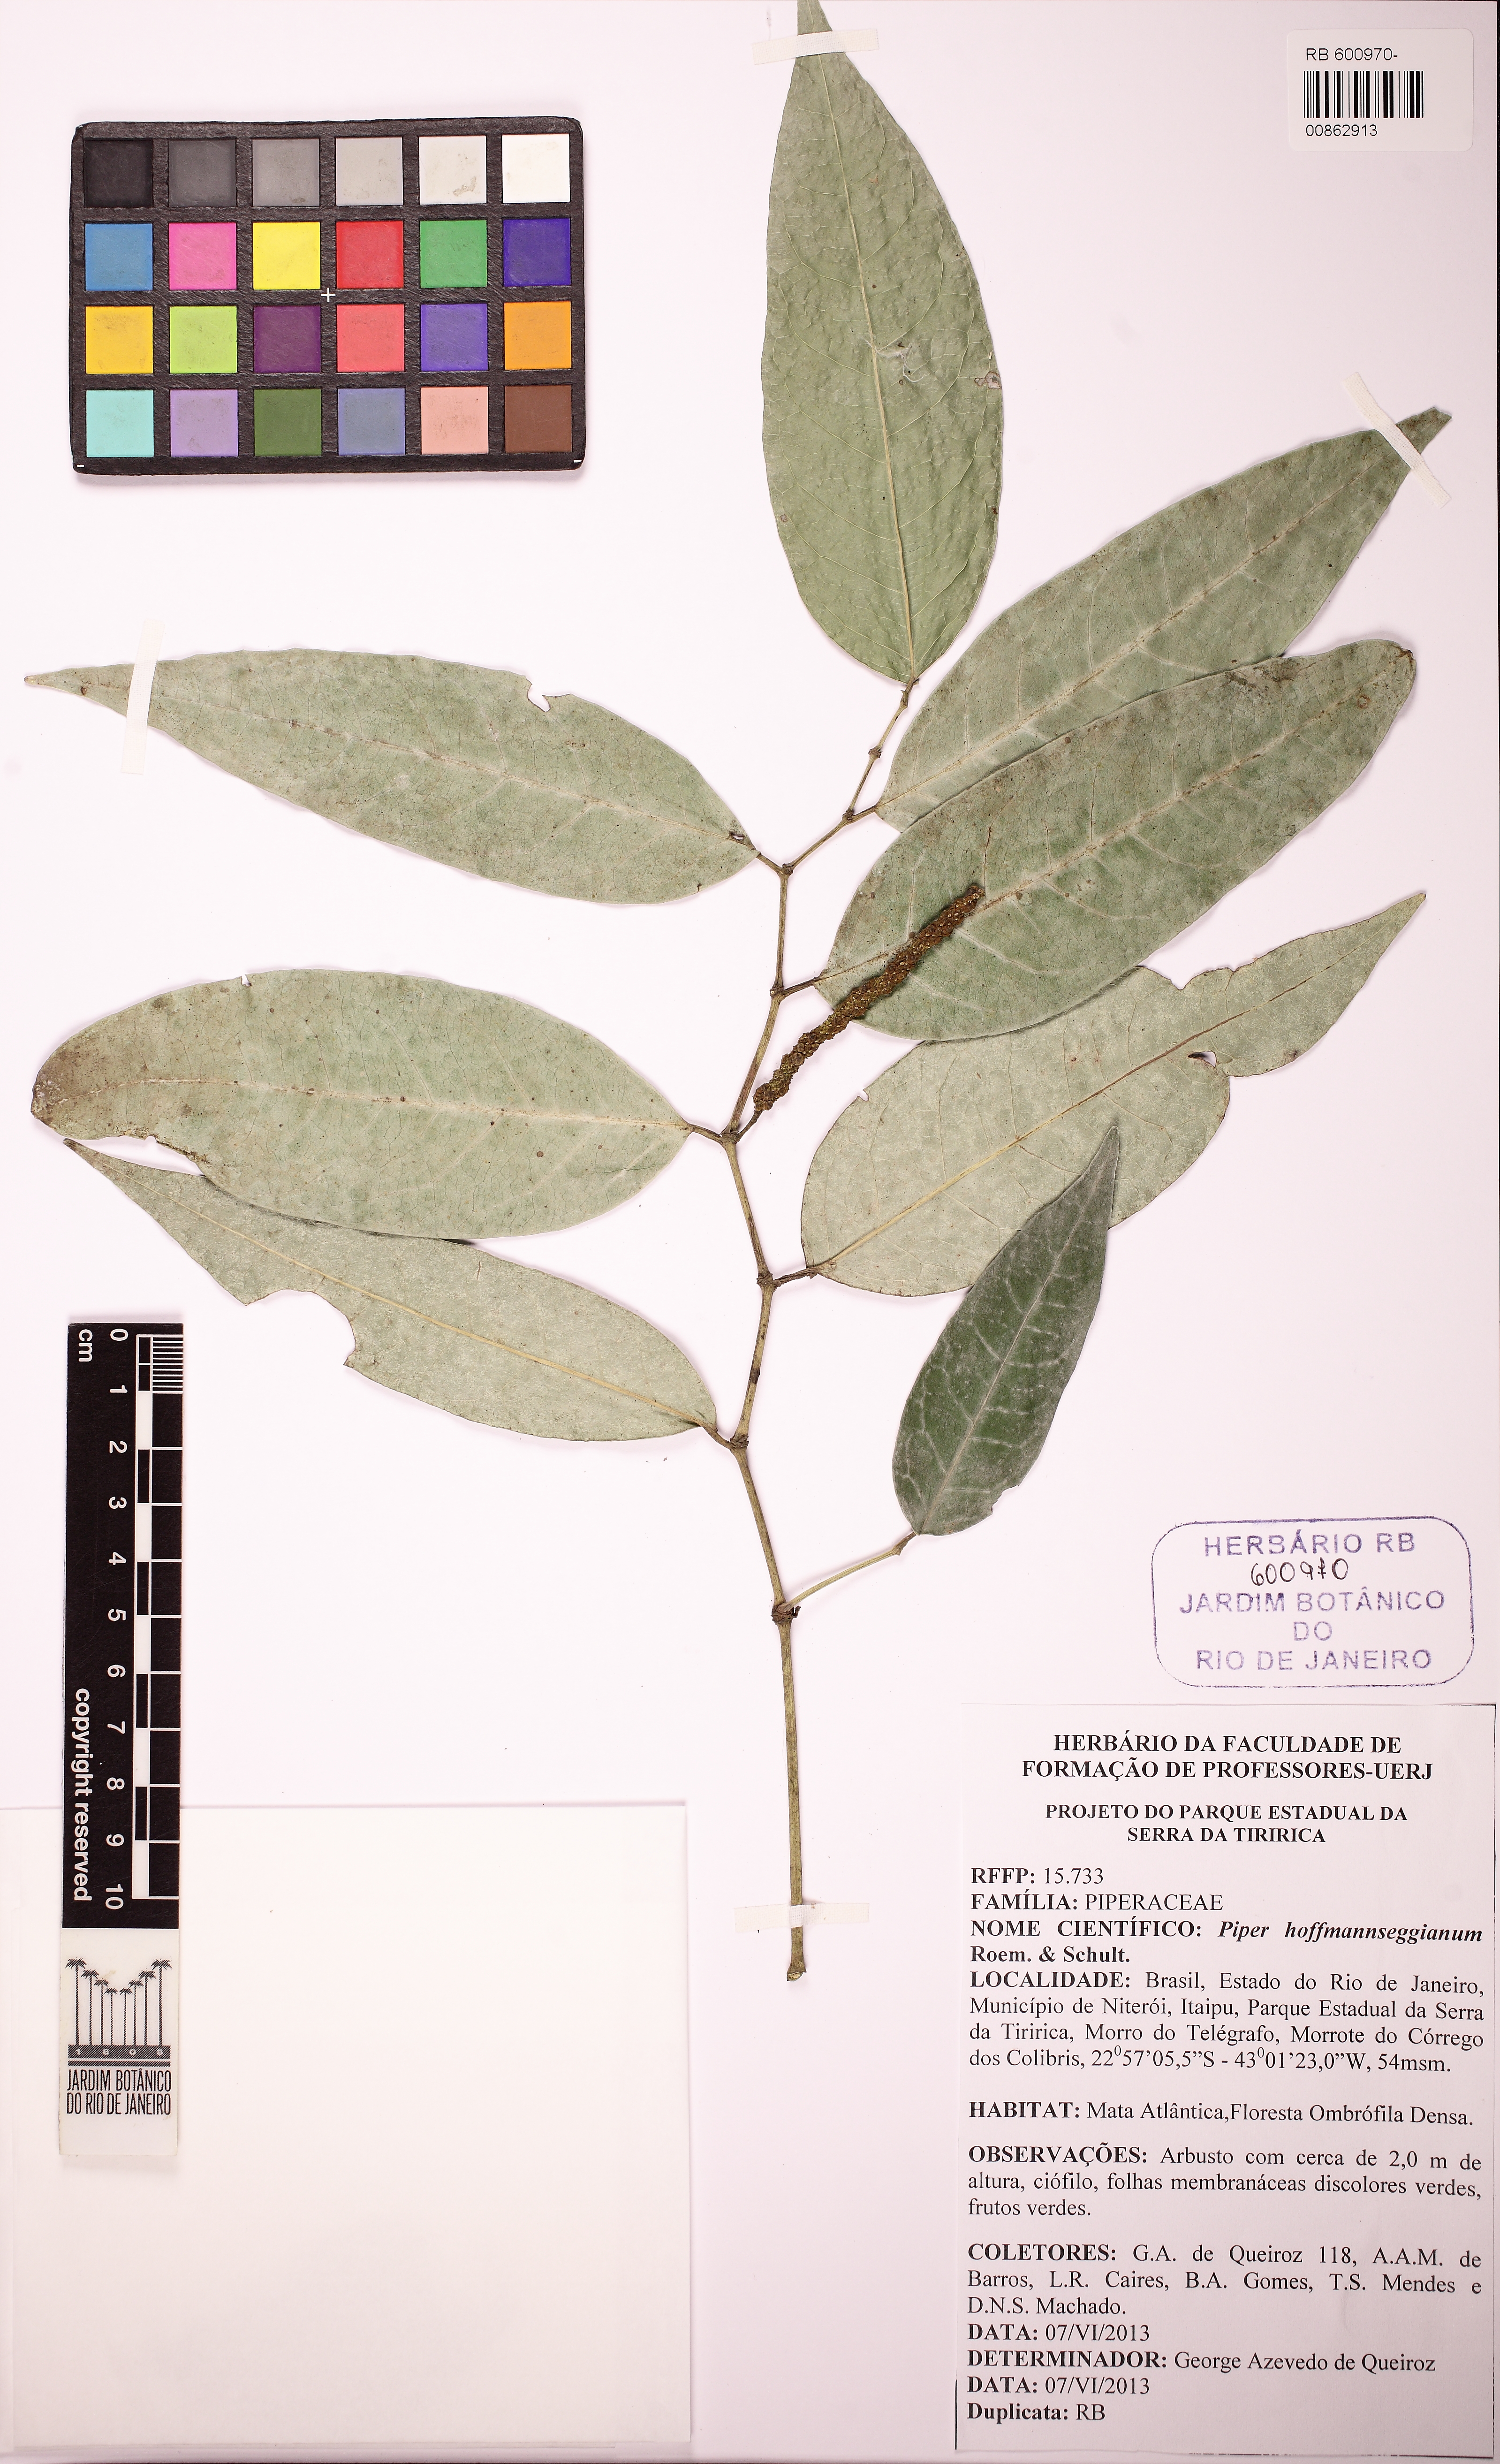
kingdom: Plantae
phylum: Tracheophyta
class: Magnoliopsida
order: Piperales
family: Piperaceae
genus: Piper
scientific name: Piper hoffmannseggianum
